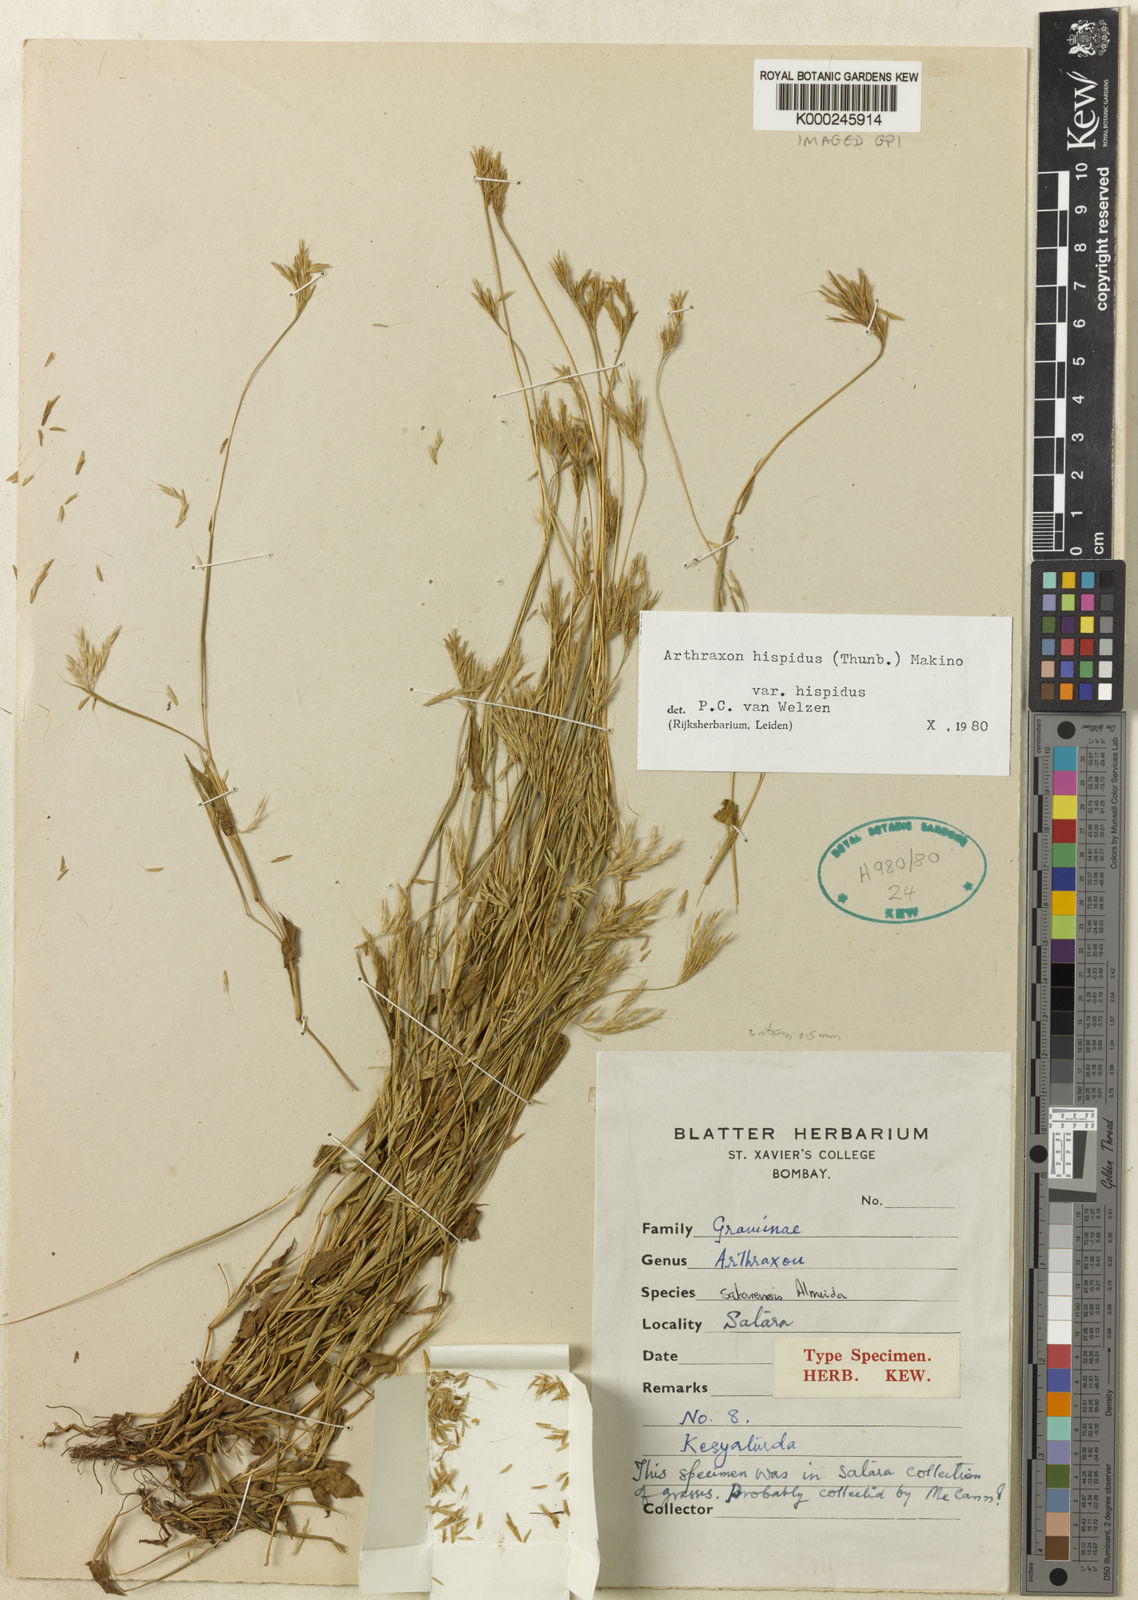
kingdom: Plantae
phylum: Tracheophyta
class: Liliopsida
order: Poales
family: Poaceae
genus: Arthraxon
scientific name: Arthraxon cuspidatus
